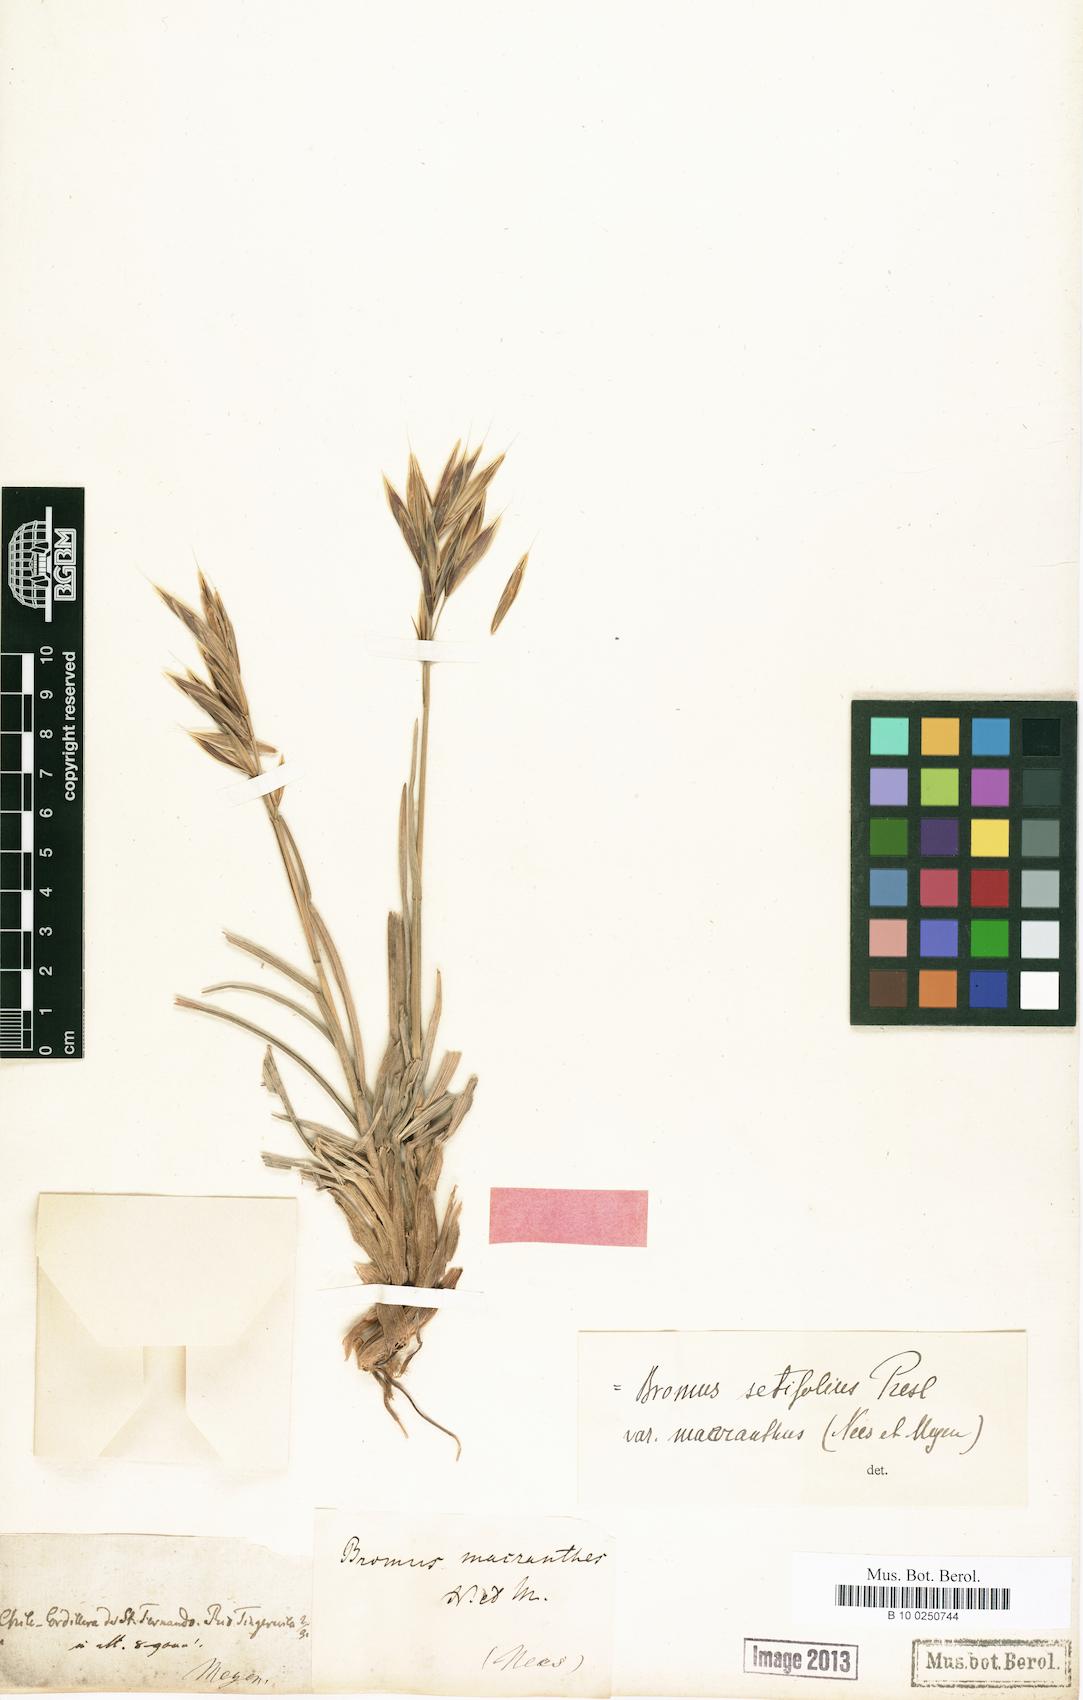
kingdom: Plantae
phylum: Tracheophyta
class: Liliopsida
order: Poales
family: Poaceae
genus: Bromus
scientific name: Bromus macranthus
